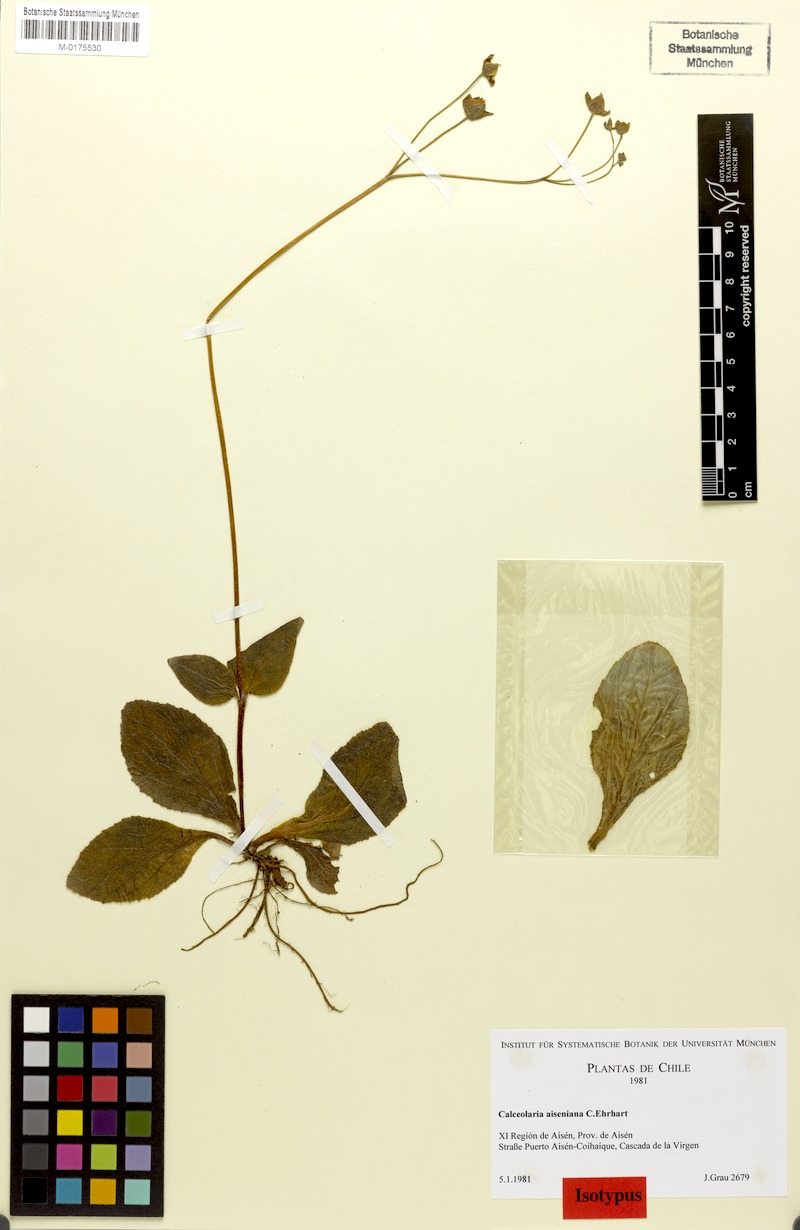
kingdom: Plantae
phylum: Tracheophyta
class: Magnoliopsida
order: Lamiales
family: Calceolariaceae
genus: Calceolaria
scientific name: Calceolaria aiseniana
